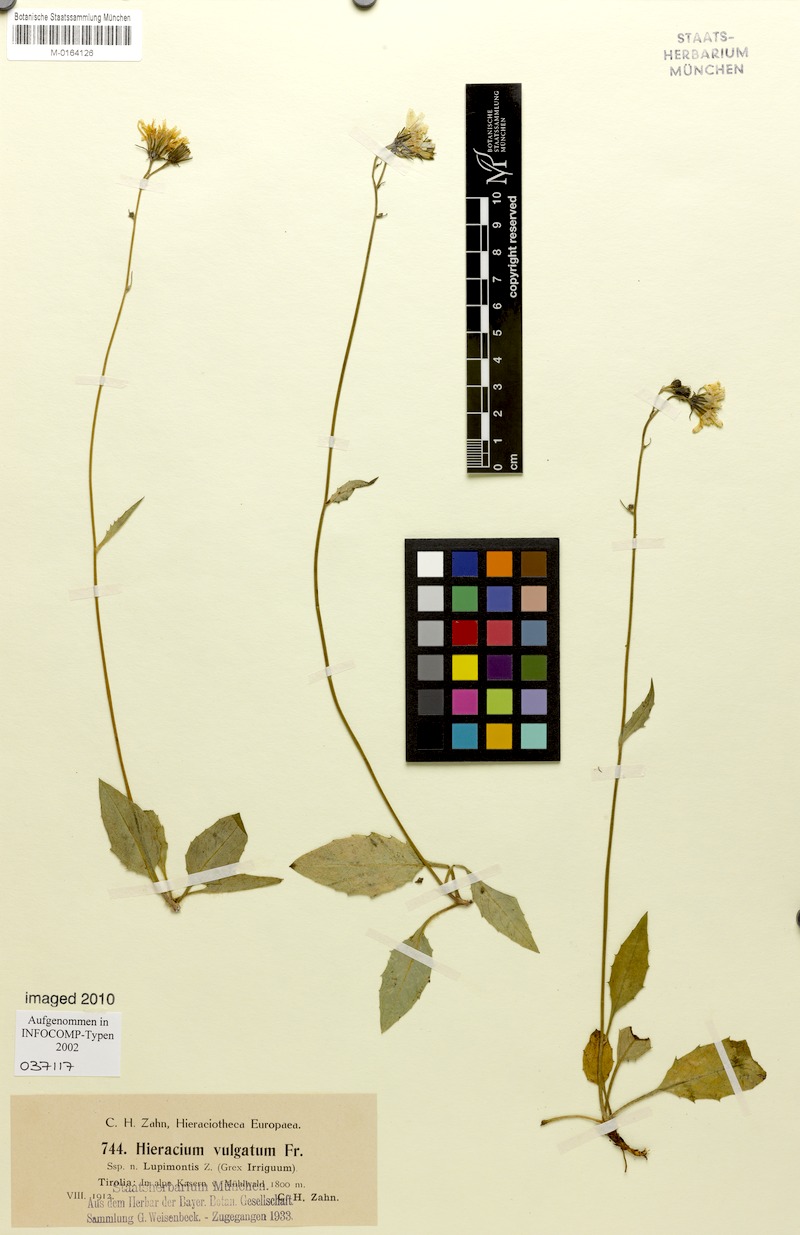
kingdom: Plantae
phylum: Tracheophyta
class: Magnoliopsida
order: Asterales
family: Asteraceae
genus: Hieracium
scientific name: Hieracium lachenalii
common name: Common hawkweed
